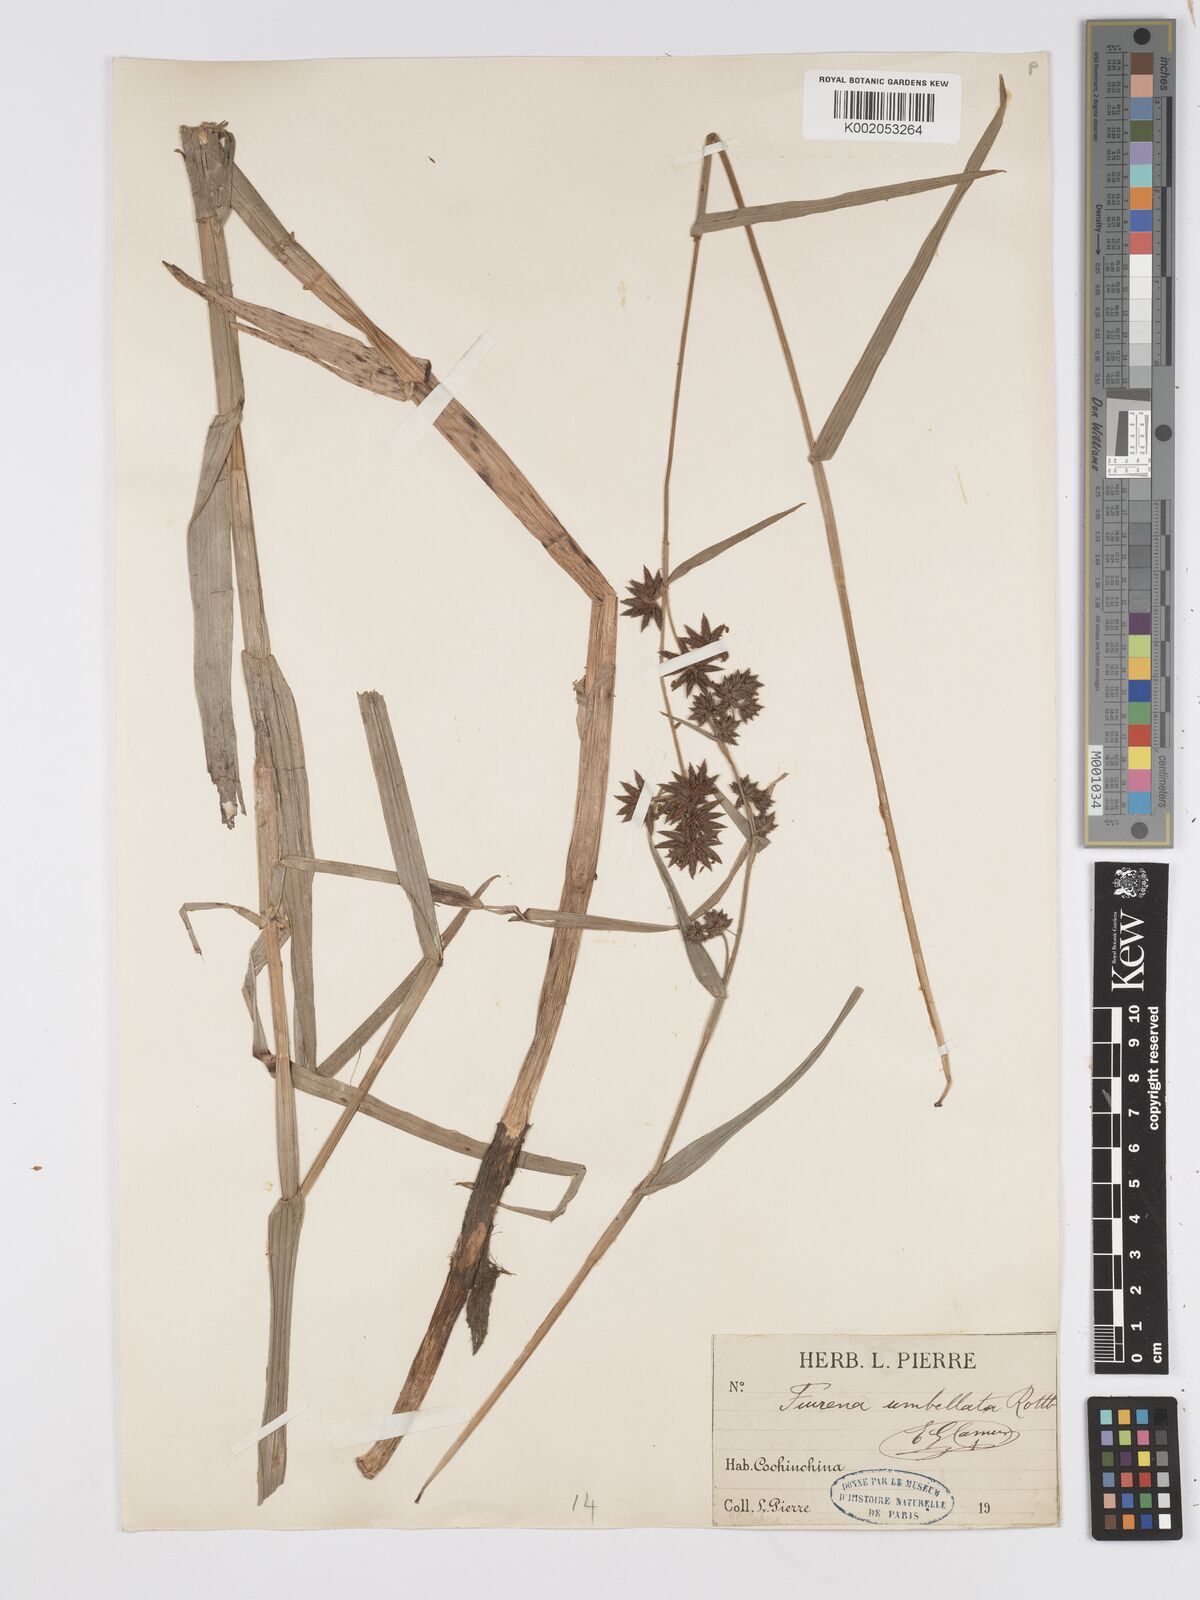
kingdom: Plantae
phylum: Tracheophyta
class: Liliopsida
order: Poales
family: Cyperaceae
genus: Fuirena
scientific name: Fuirena umbellata
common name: Yefen
